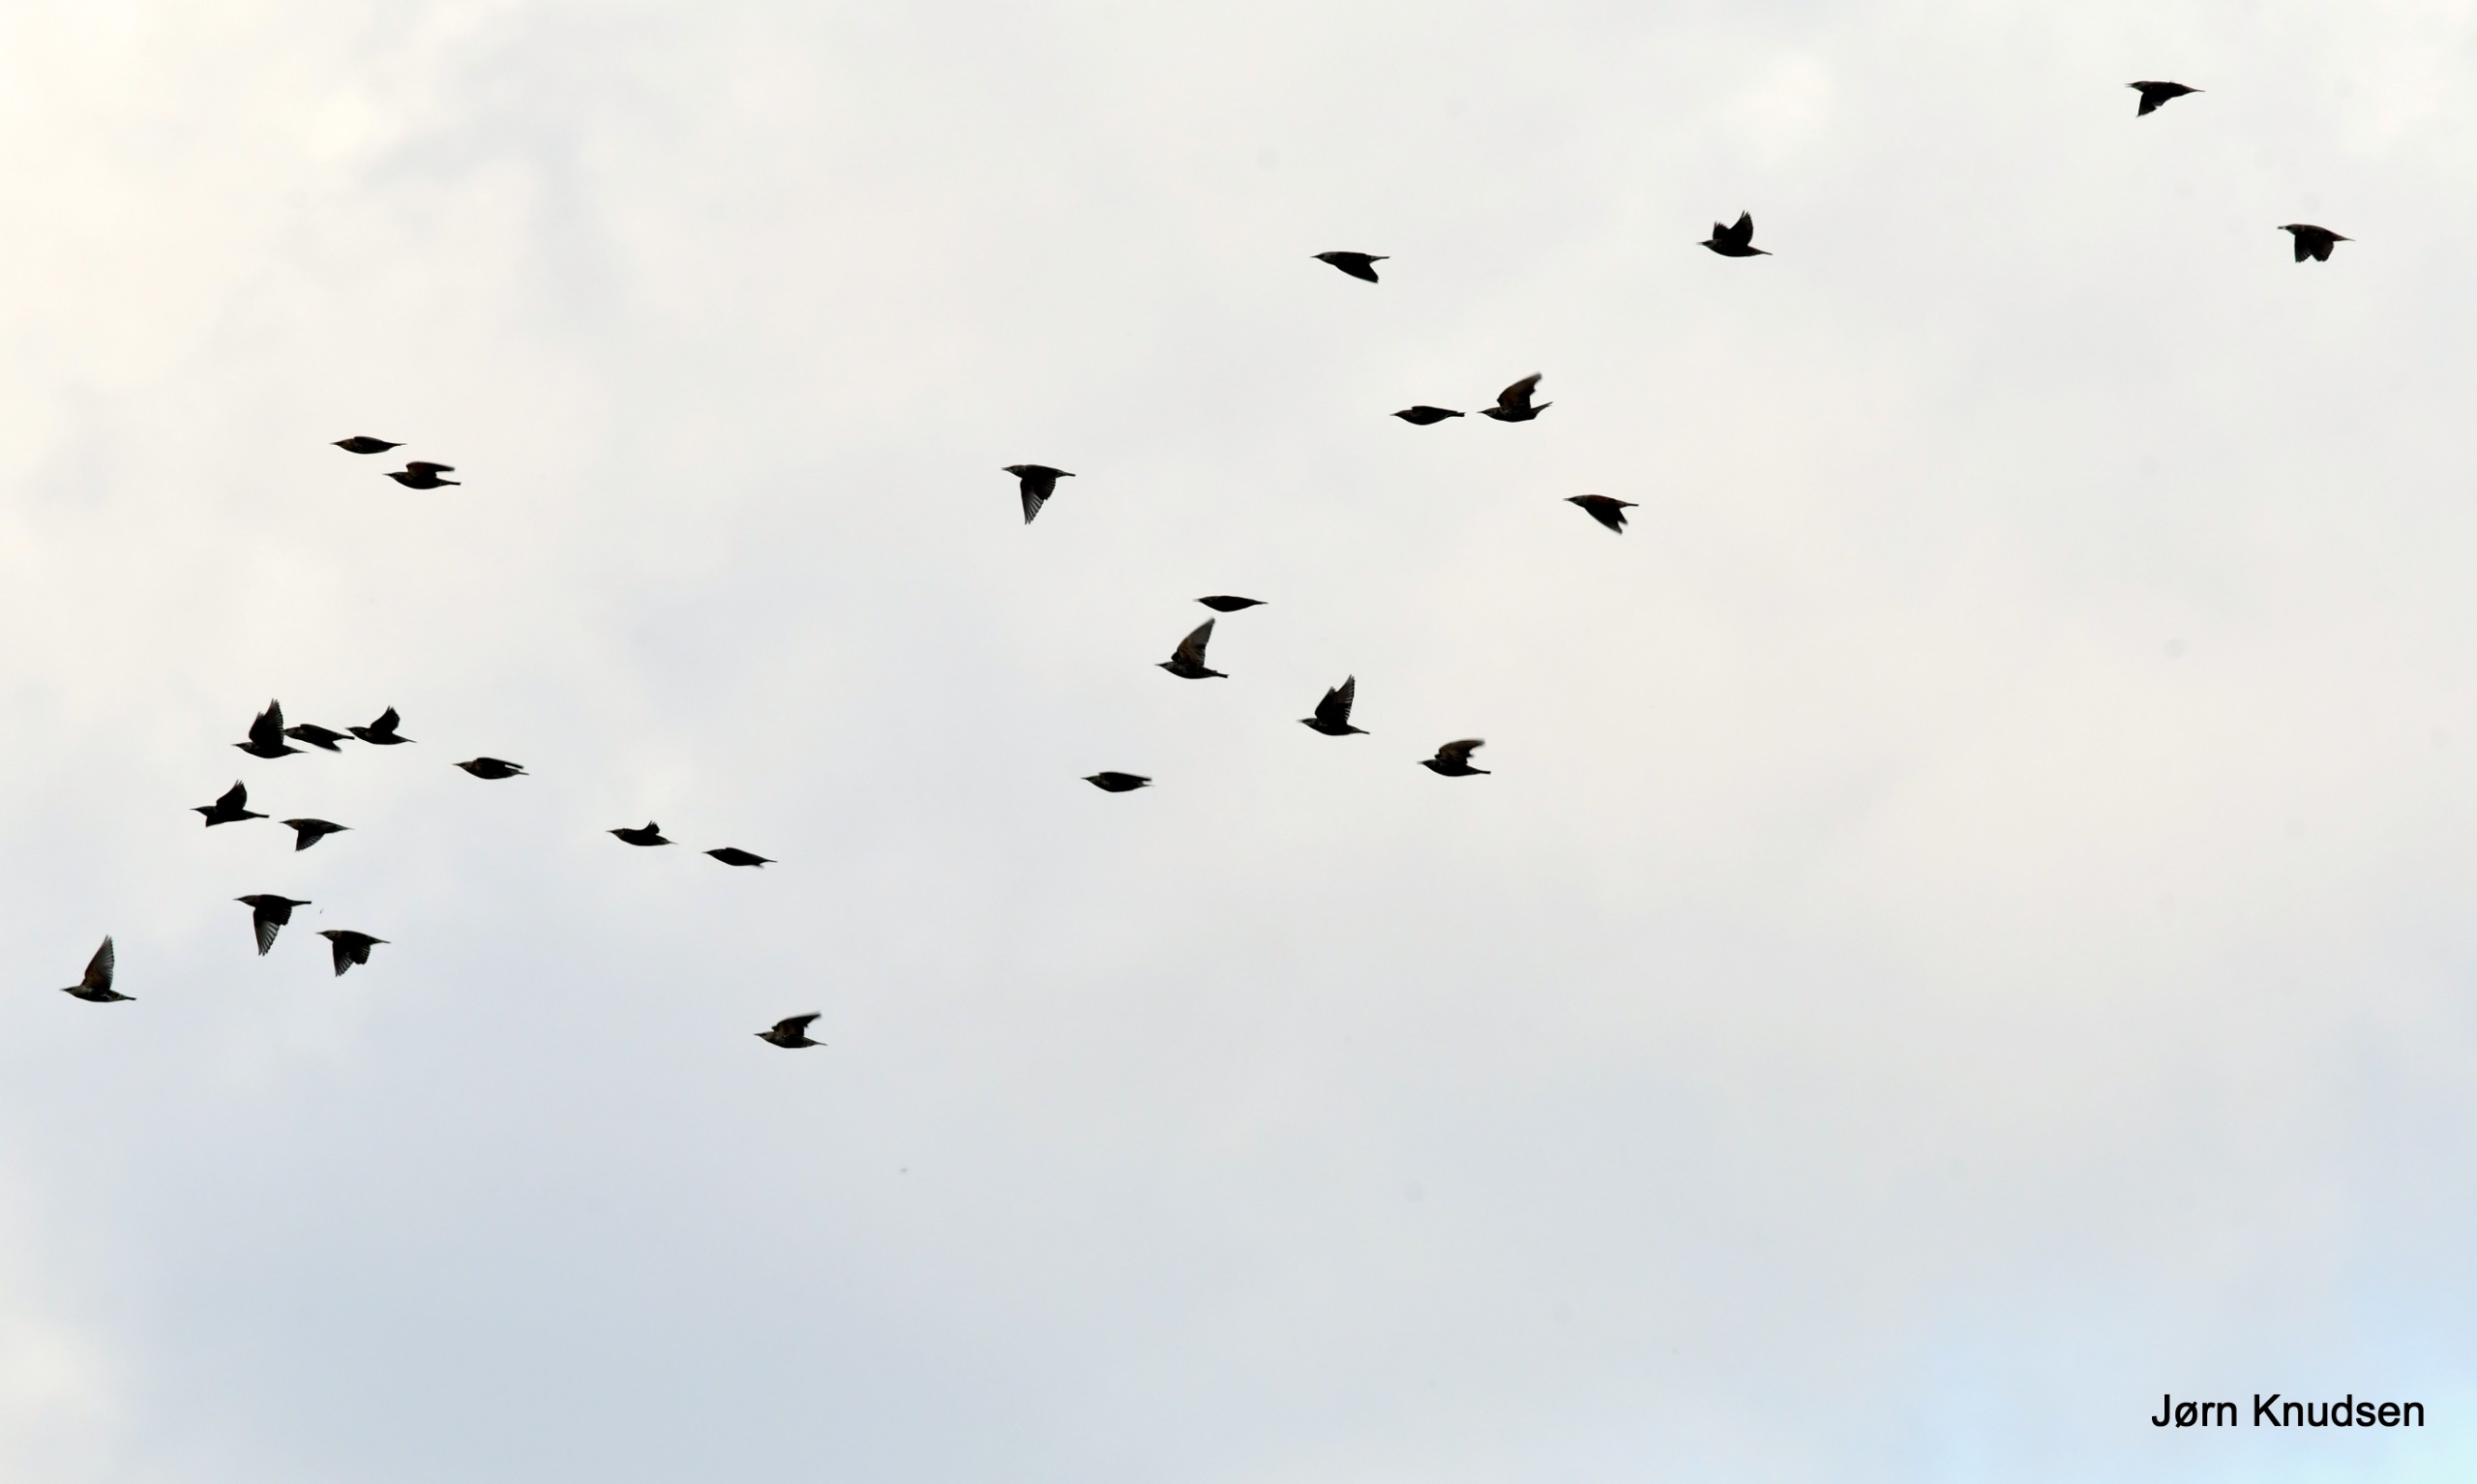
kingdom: Animalia
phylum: Chordata
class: Aves
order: Passeriformes
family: Sturnidae
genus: Sturnus
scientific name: Sturnus vulgaris
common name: Stær
